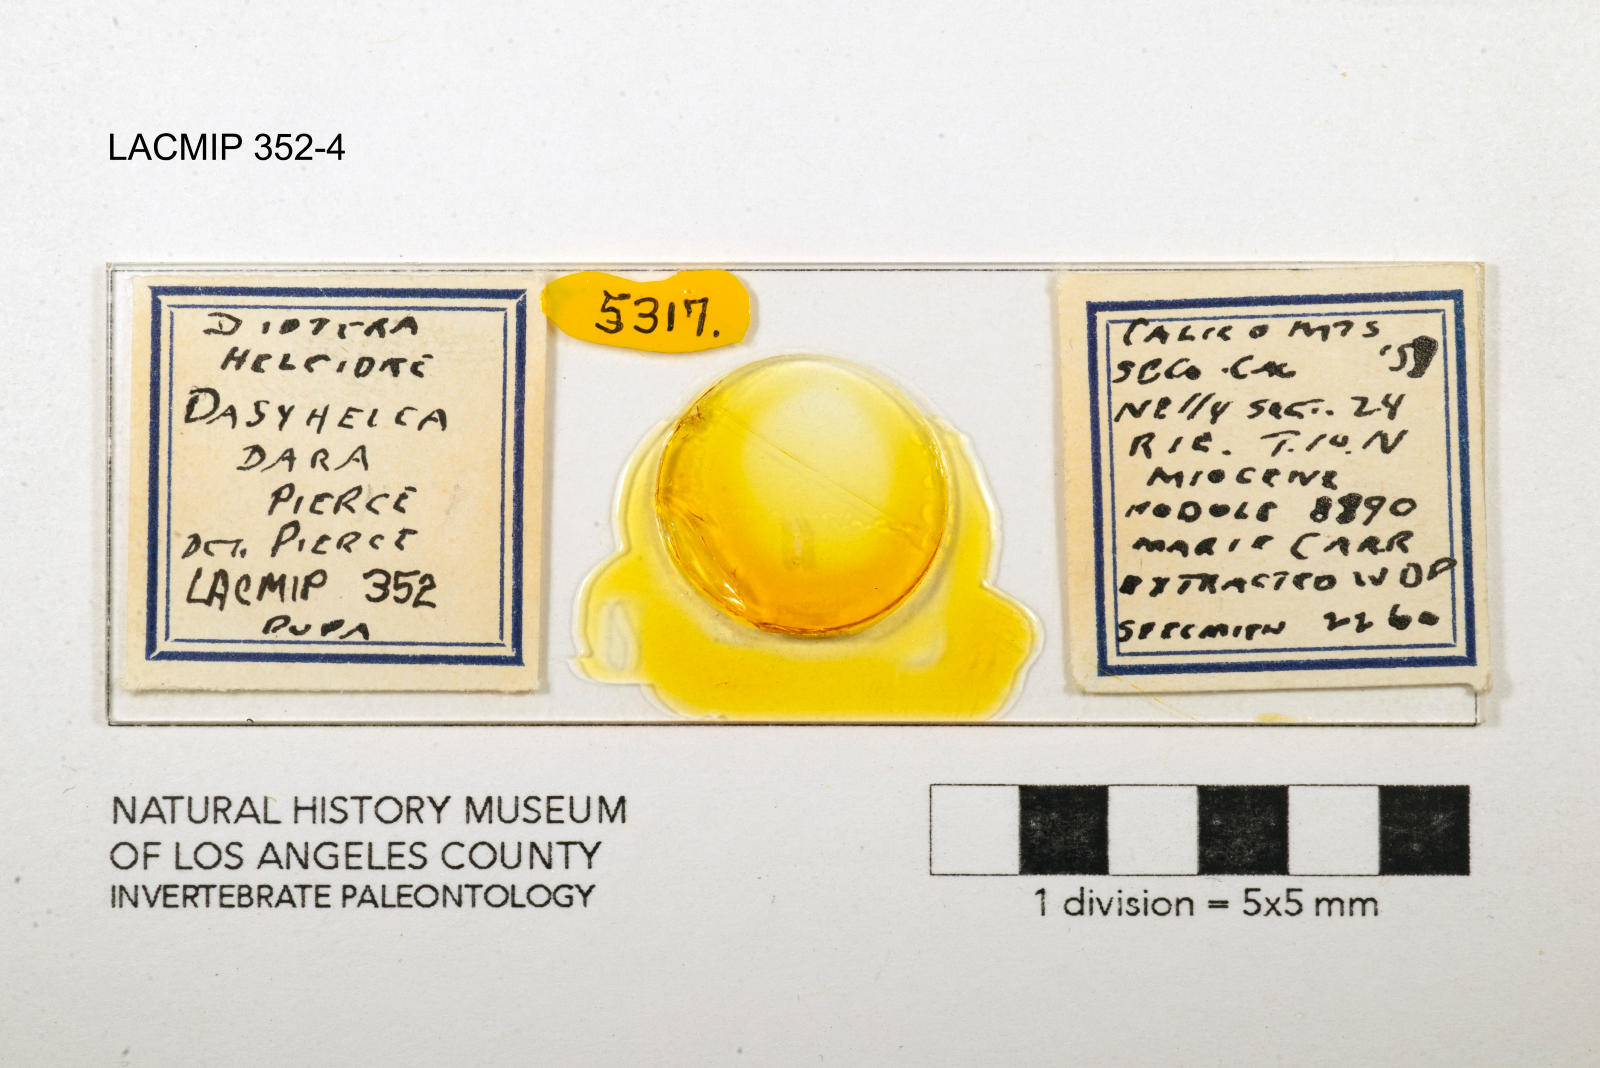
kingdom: Animalia
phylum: Arthropoda
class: Insecta
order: Diptera
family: Ceratopogonidae
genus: Dasyhelea
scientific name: Dasyhelea dara
